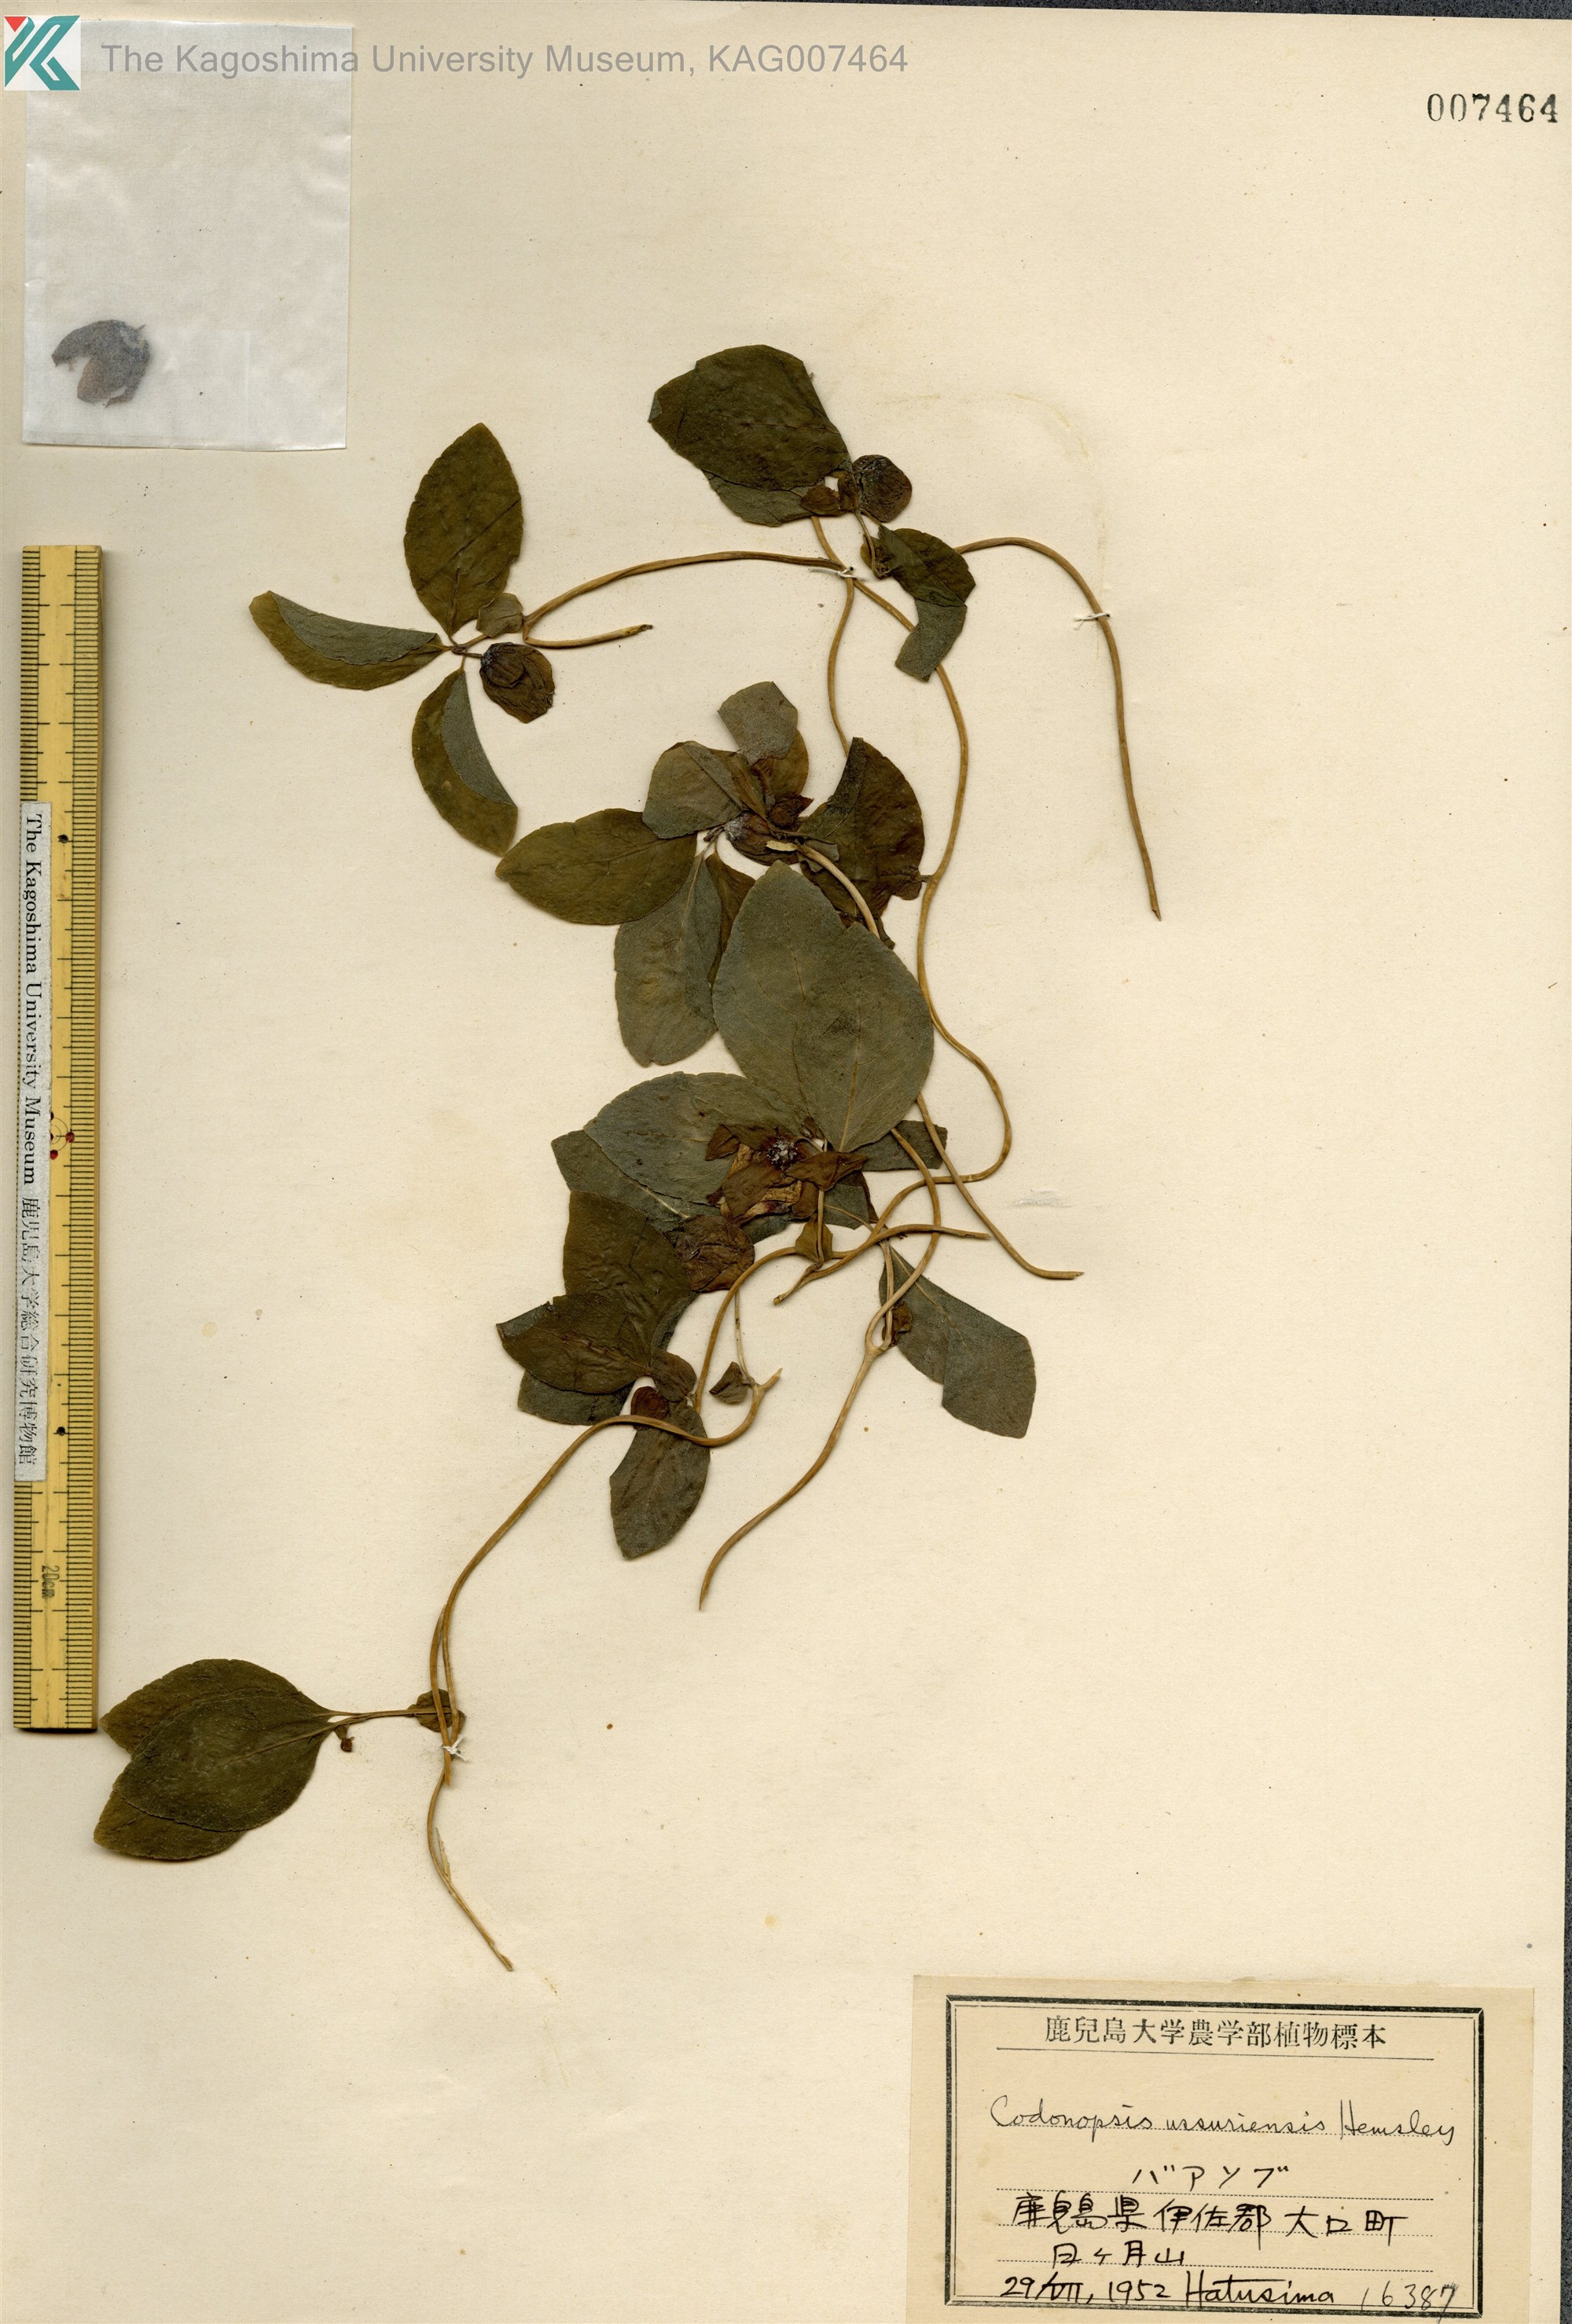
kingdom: Plantae
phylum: Tracheophyta
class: Magnoliopsida
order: Asterales
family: Campanulaceae
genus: Codonopsis
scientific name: Codonopsis ussuriensis
